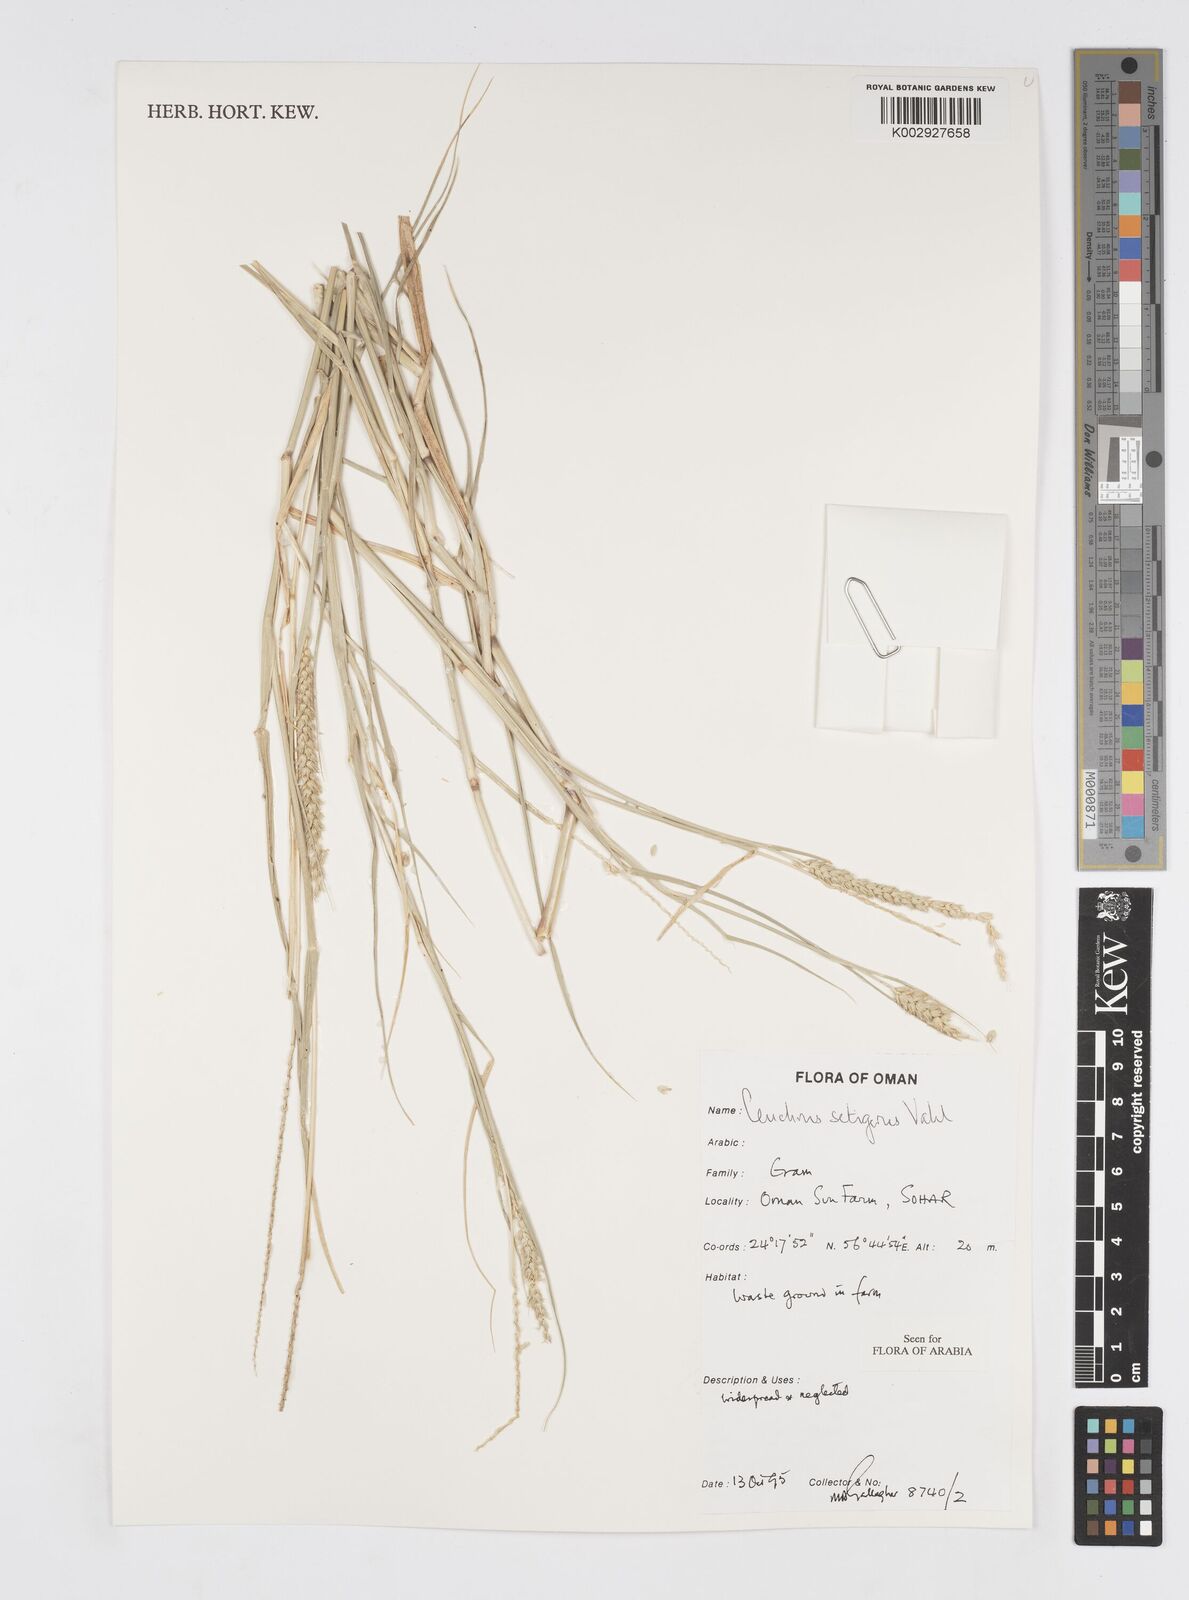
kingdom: Plantae
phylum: Tracheophyta
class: Liliopsida
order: Poales
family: Poaceae
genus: Cenchrus
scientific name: Cenchrus setigerus
